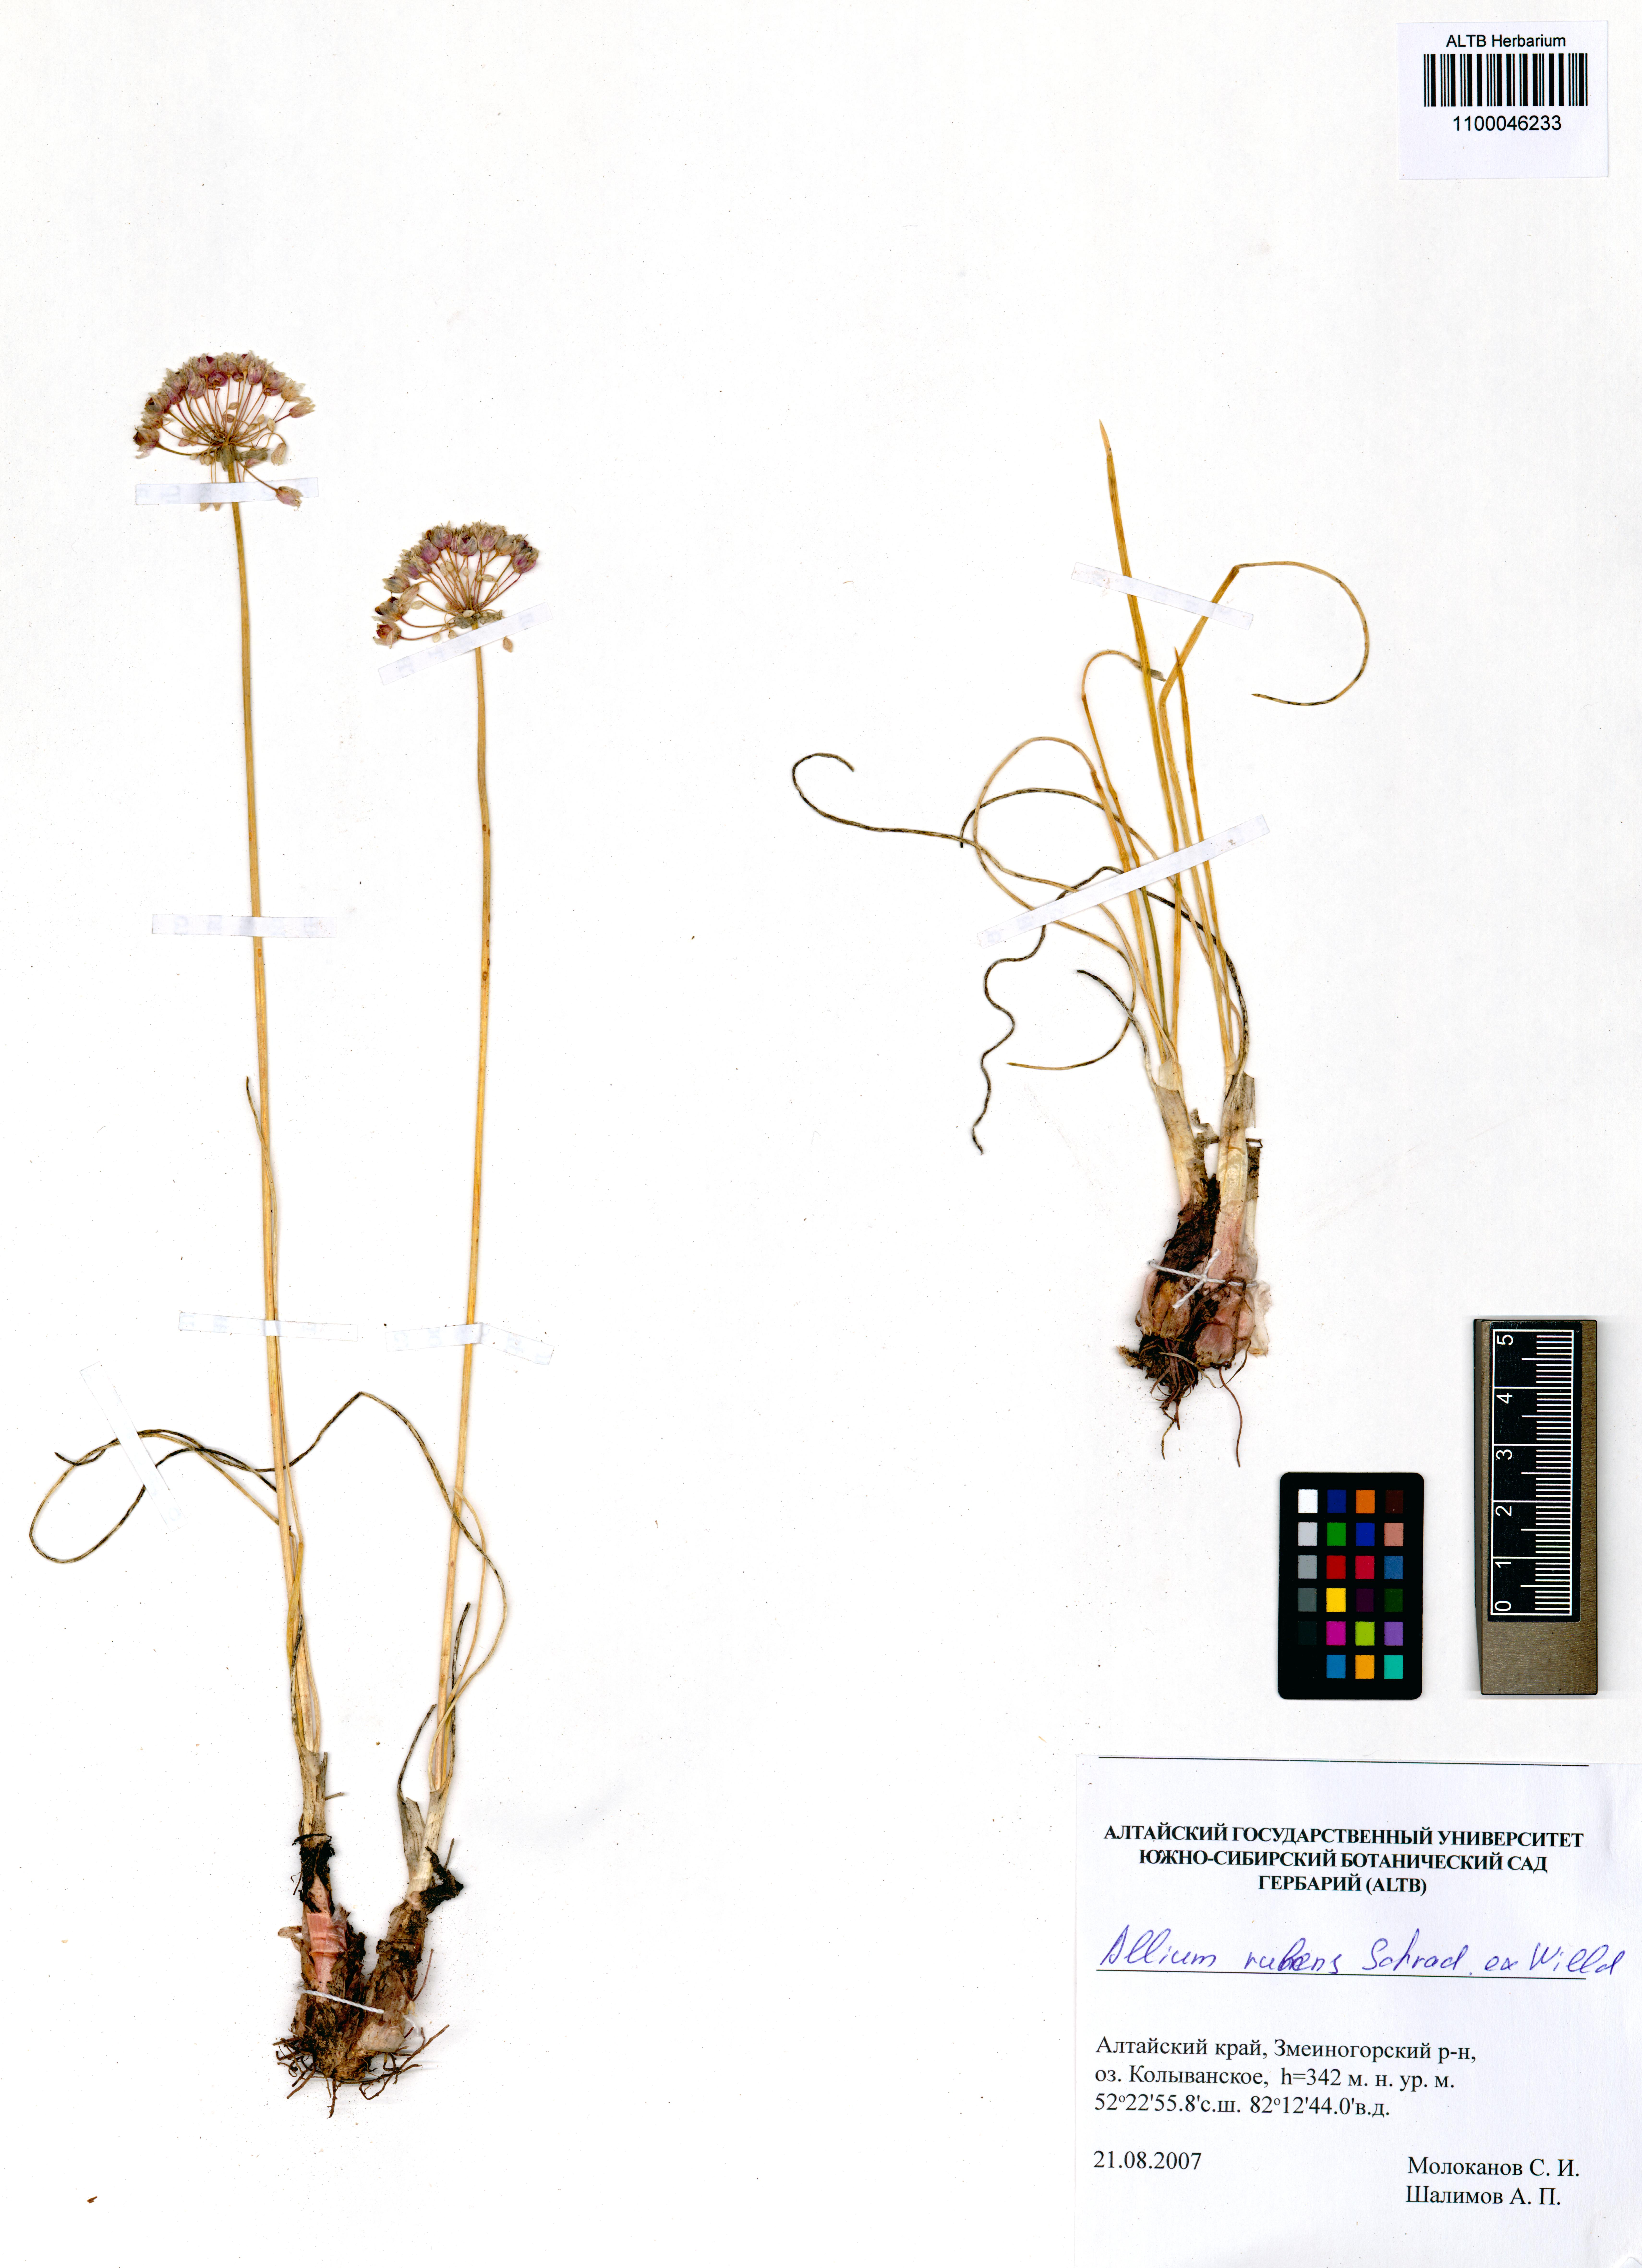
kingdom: Plantae
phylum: Tracheophyta
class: Liliopsida
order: Asparagales
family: Amaryllidaceae
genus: Allium
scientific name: Allium rubens
